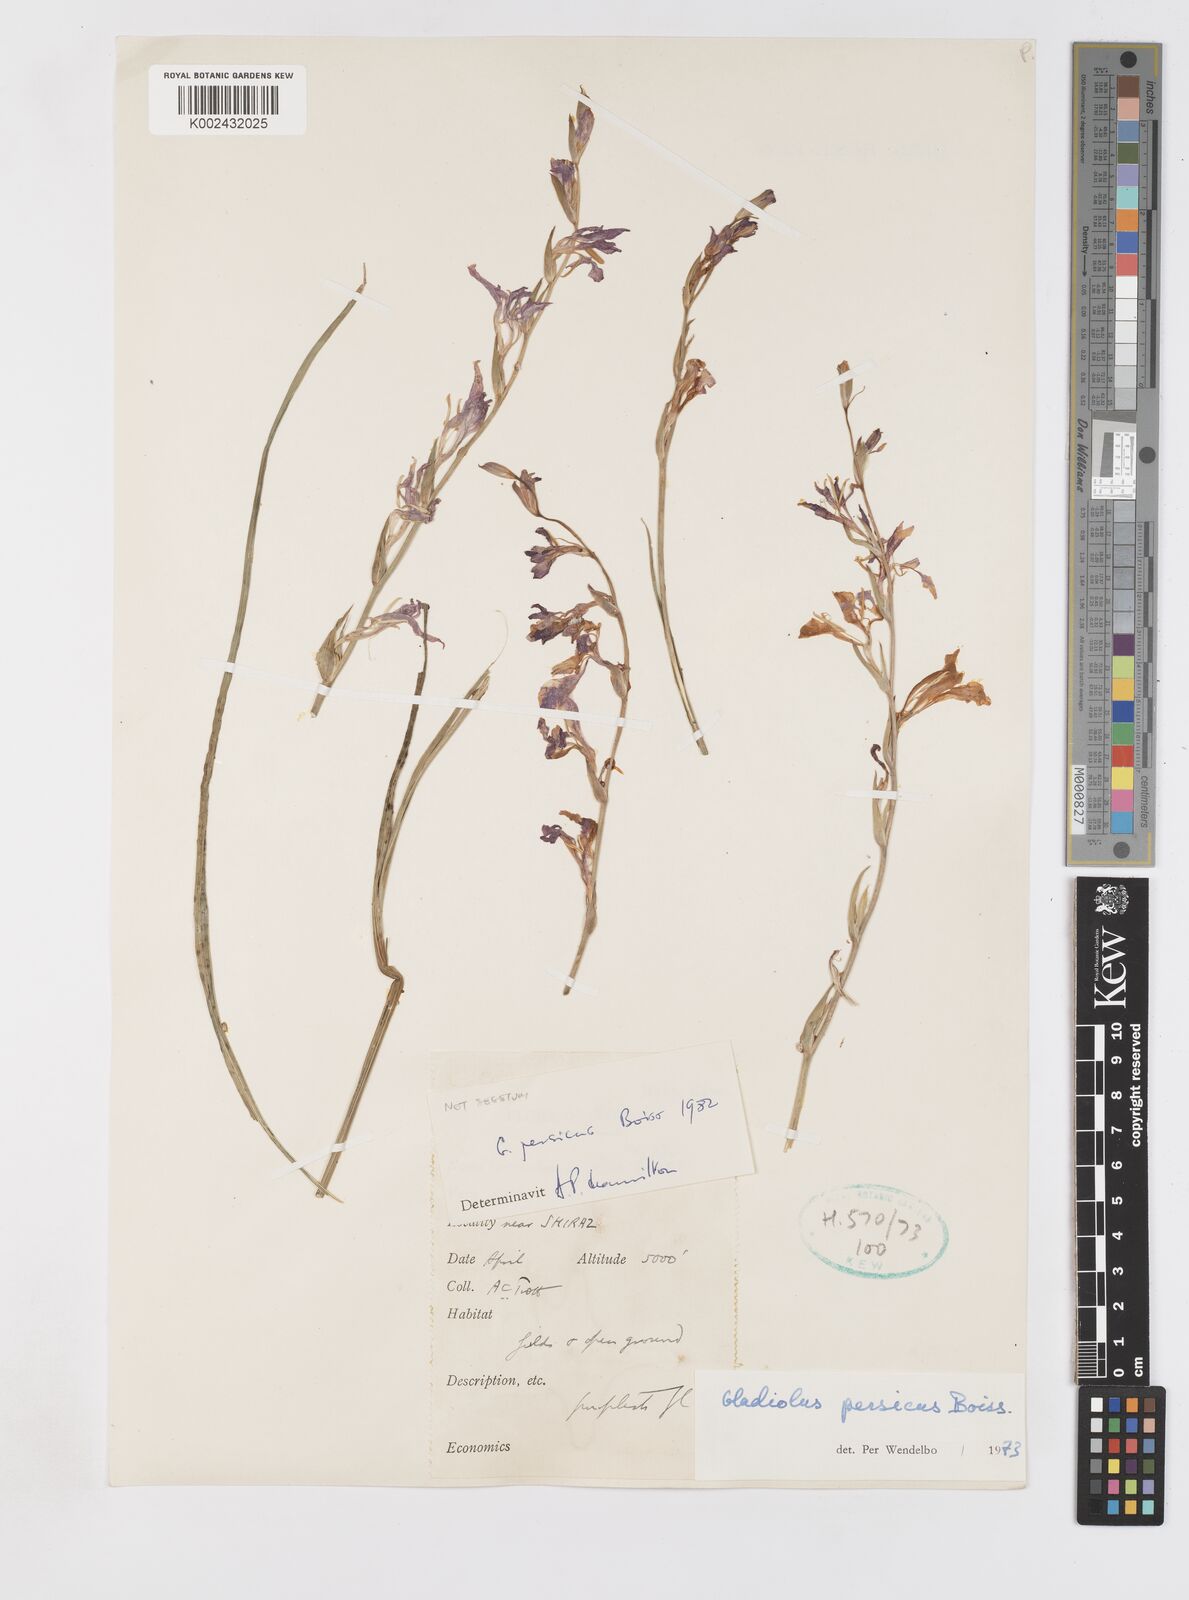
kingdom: Plantae
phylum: Tracheophyta
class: Liliopsida
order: Asparagales
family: Iridaceae
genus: Gladiolus
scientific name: Gladiolus persicus
